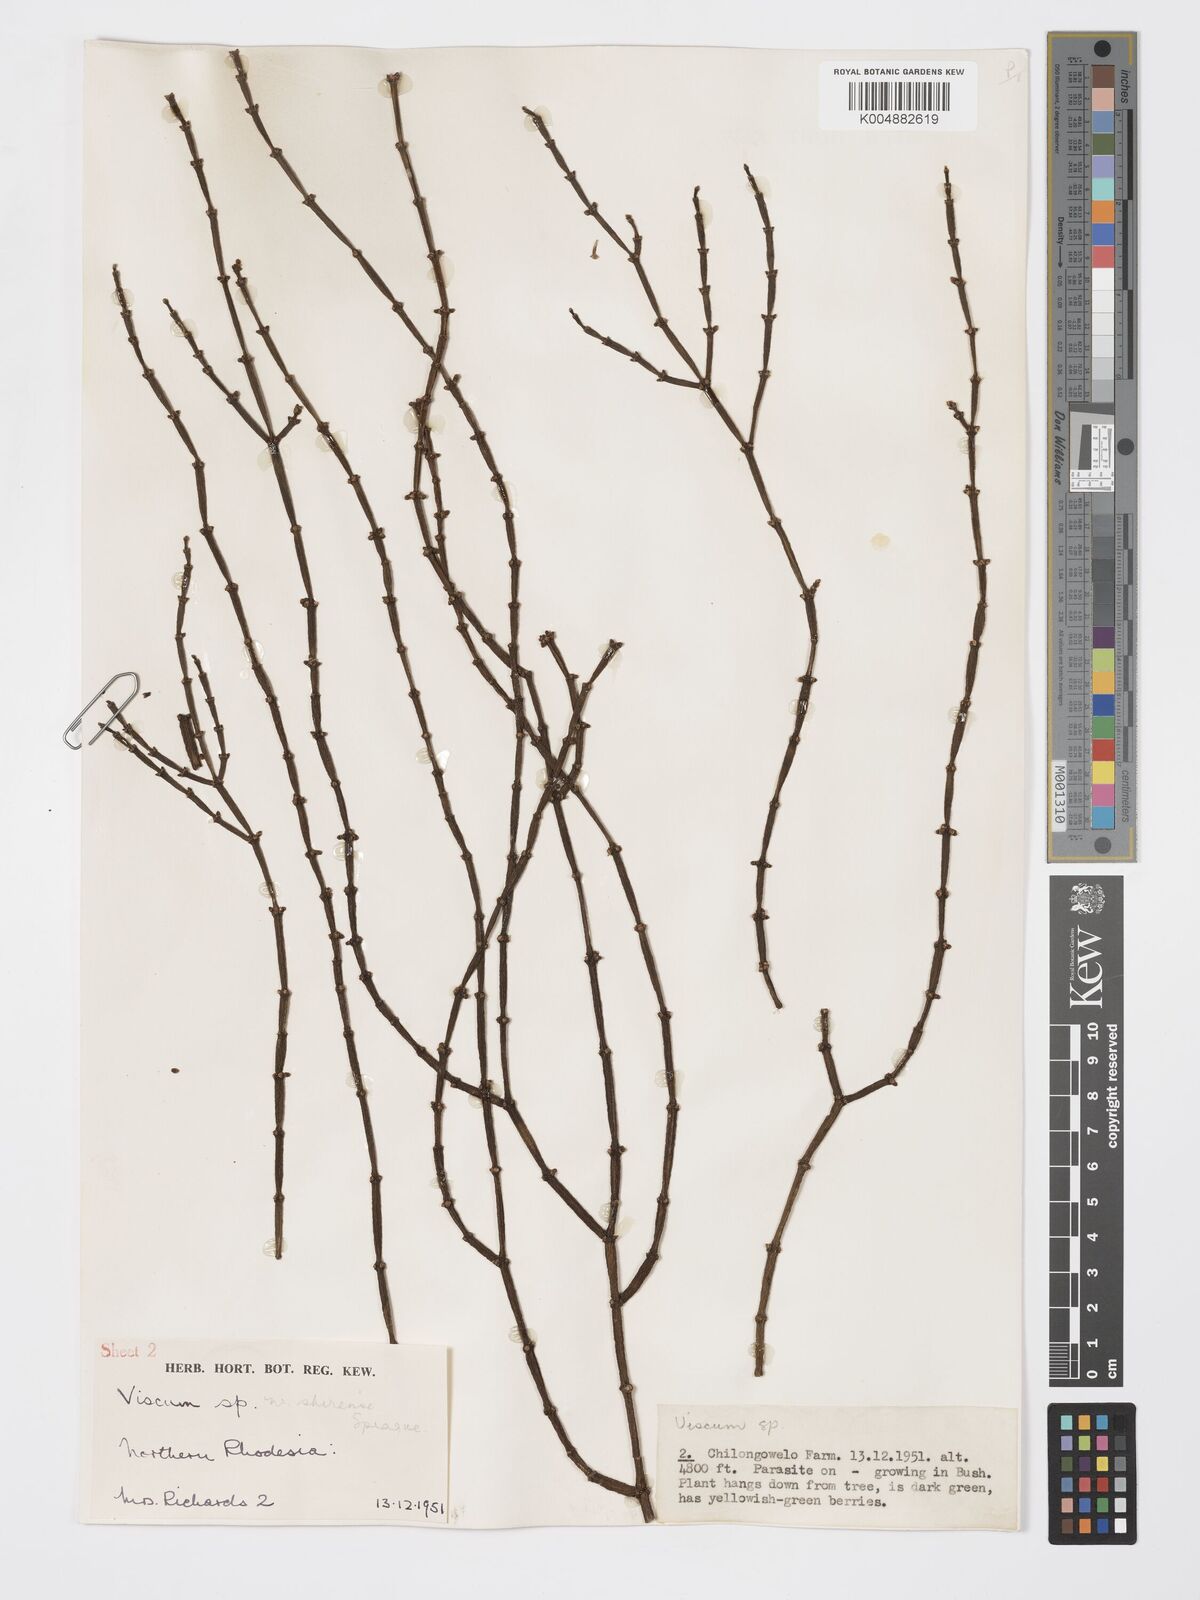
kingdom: Plantae
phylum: Tracheophyta
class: Magnoliopsida
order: Santalales
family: Viscaceae
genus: Viscum
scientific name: Viscum junodii
